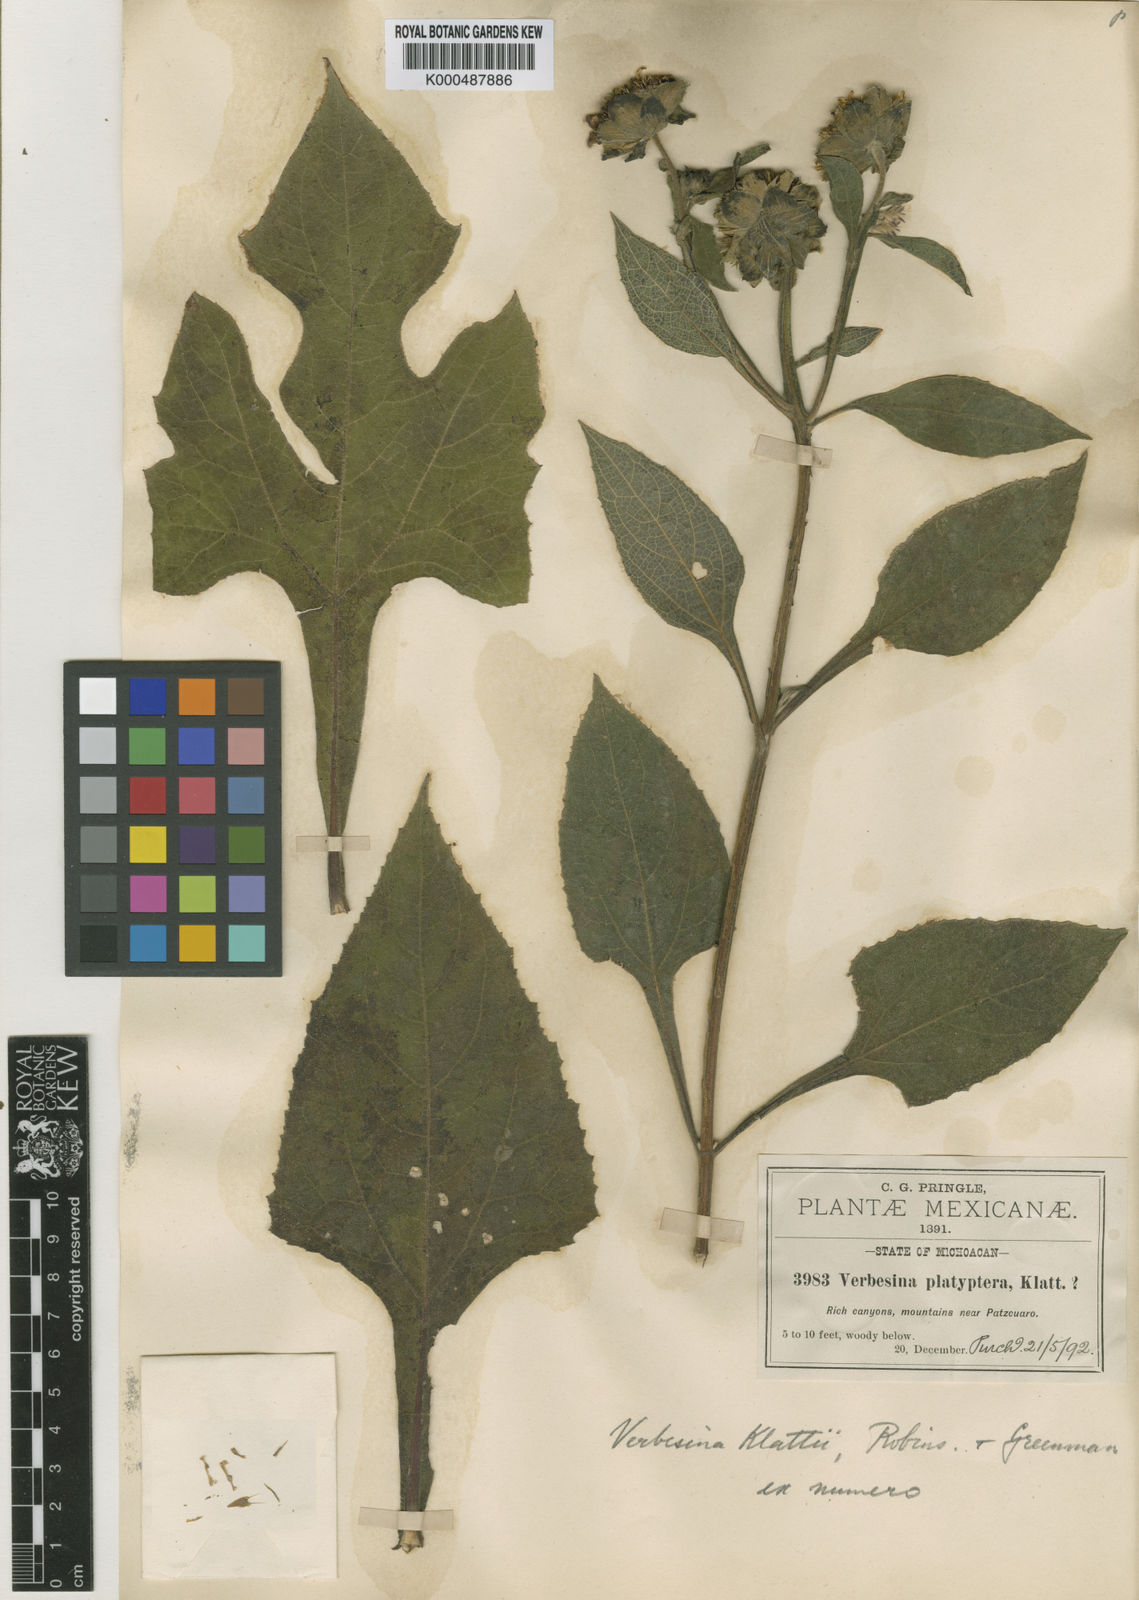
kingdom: Plantae
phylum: Tracheophyta
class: Magnoliopsida
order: Asterales
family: Asteraceae
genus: Verbesina
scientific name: Verbesina klattii
